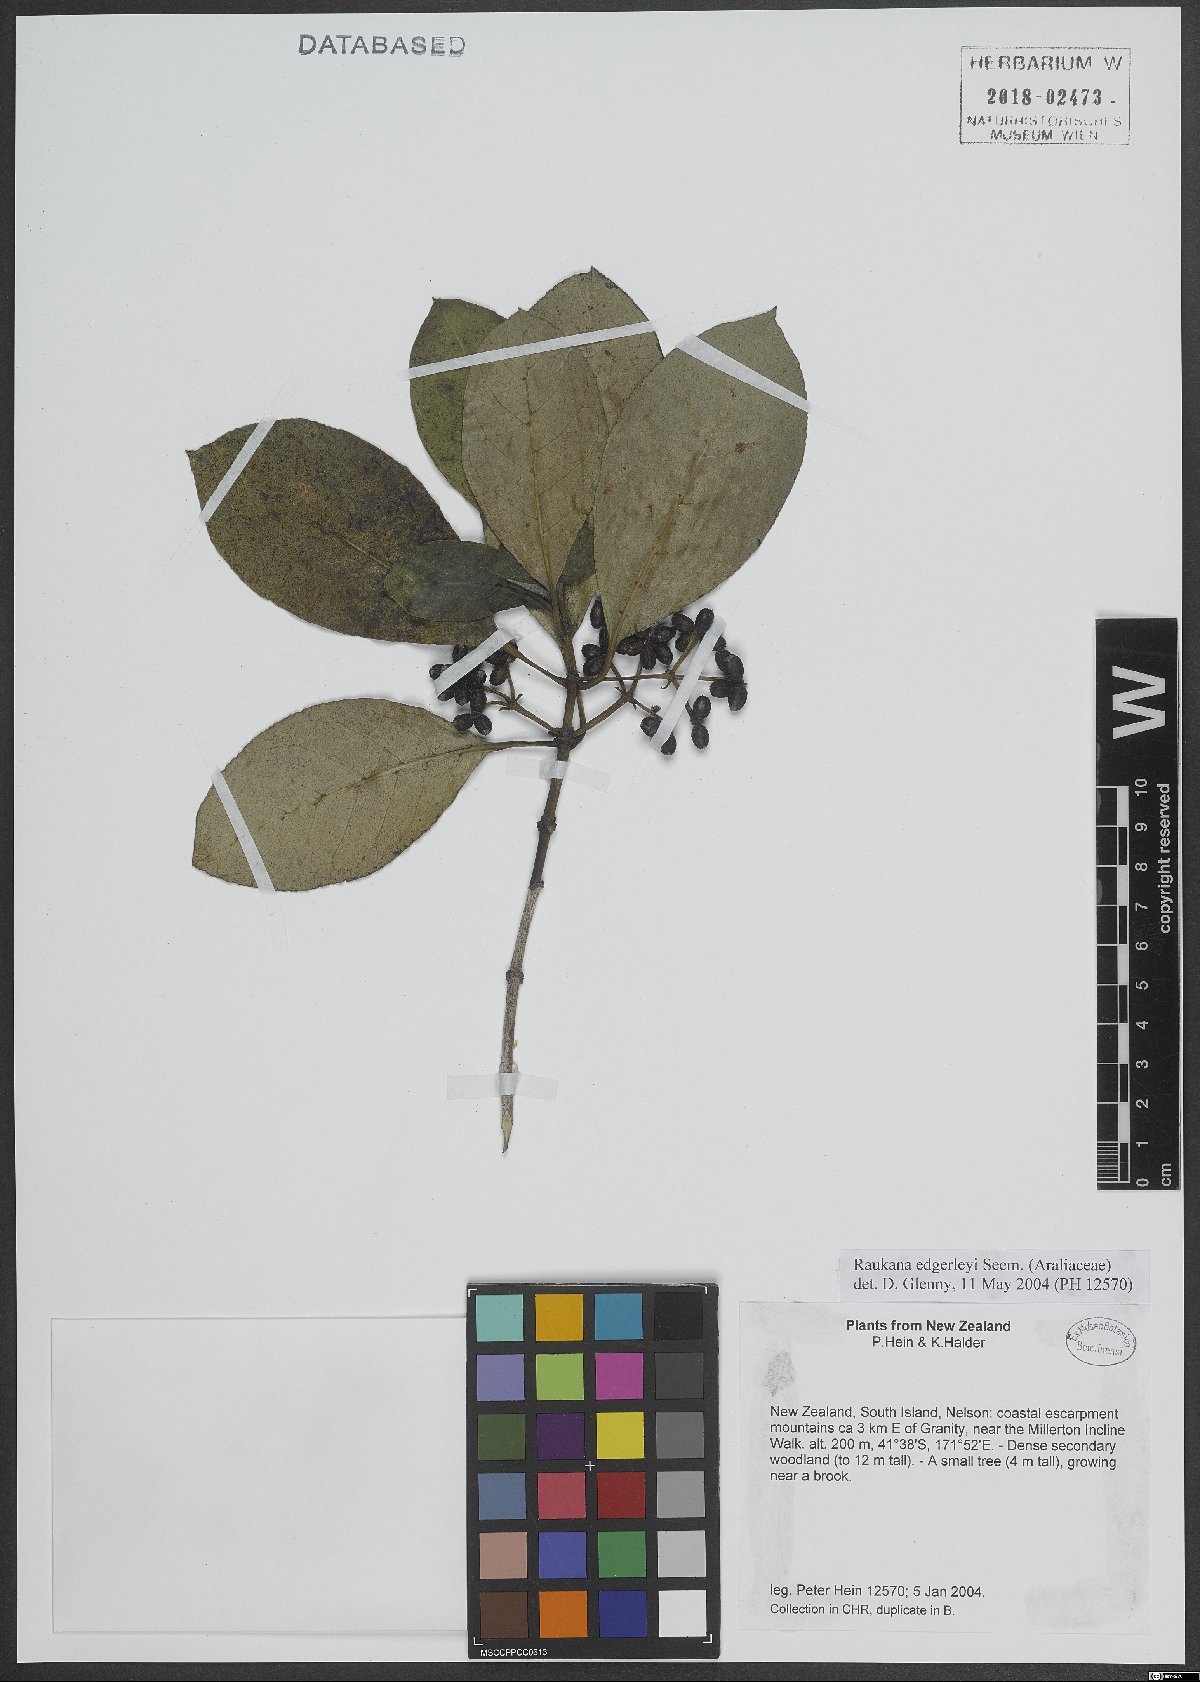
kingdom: Plantae
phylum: Tracheophyta
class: Magnoliopsida
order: Apiales
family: Araliaceae
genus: Raukaua
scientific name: Raukaua edgerleyi
